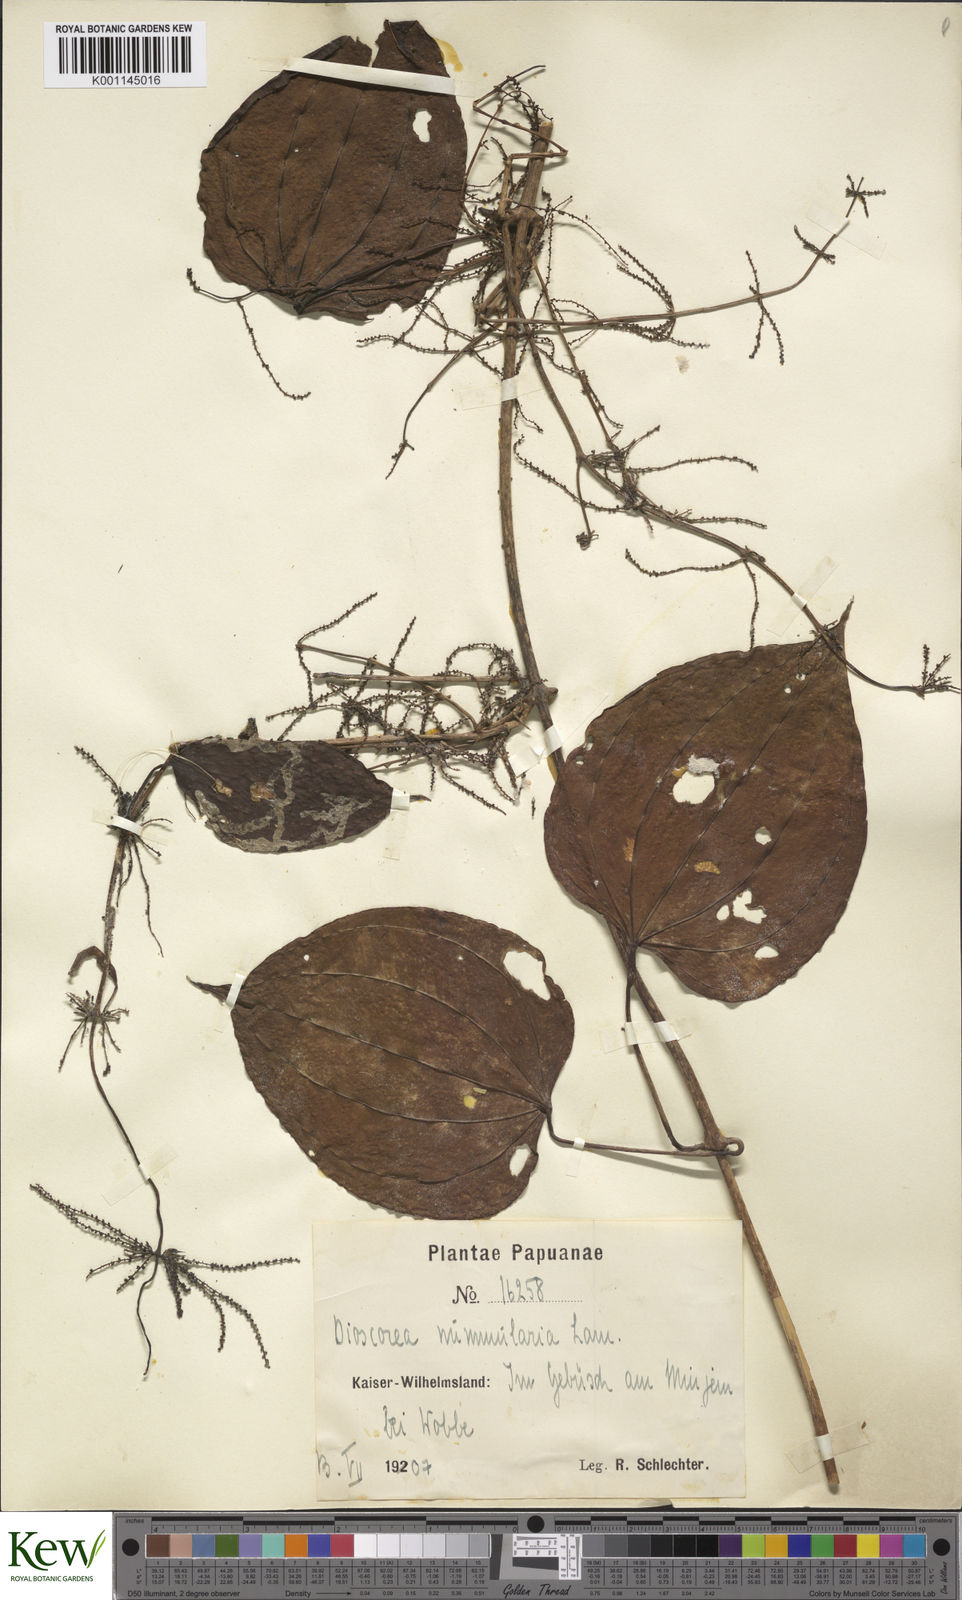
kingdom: Plantae
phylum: Tracheophyta
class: Liliopsida
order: Dioscoreales
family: Dioscoreaceae
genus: Dioscorea
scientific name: Dioscorea nummularia
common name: Pacific yam
